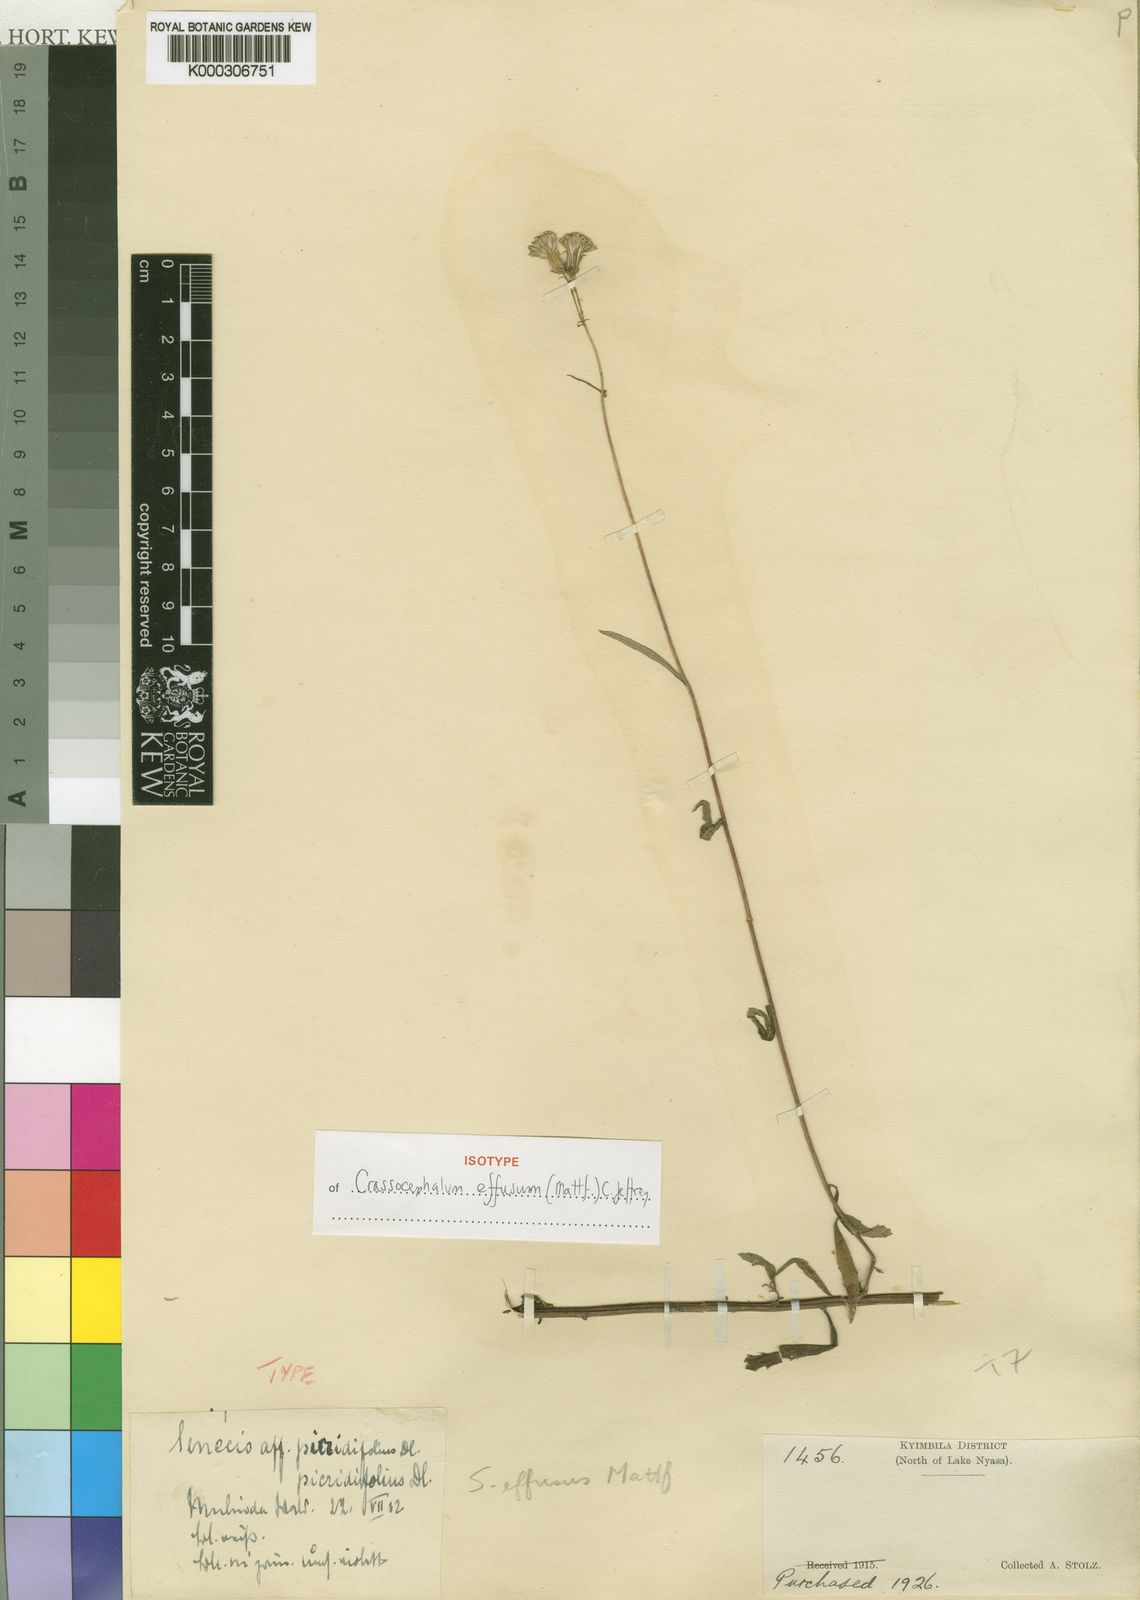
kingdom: Plantae
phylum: Tracheophyta
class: Magnoliopsida
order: Asterales
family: Asteraceae
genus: Crassocephalum
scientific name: Crassocephalum effusum
